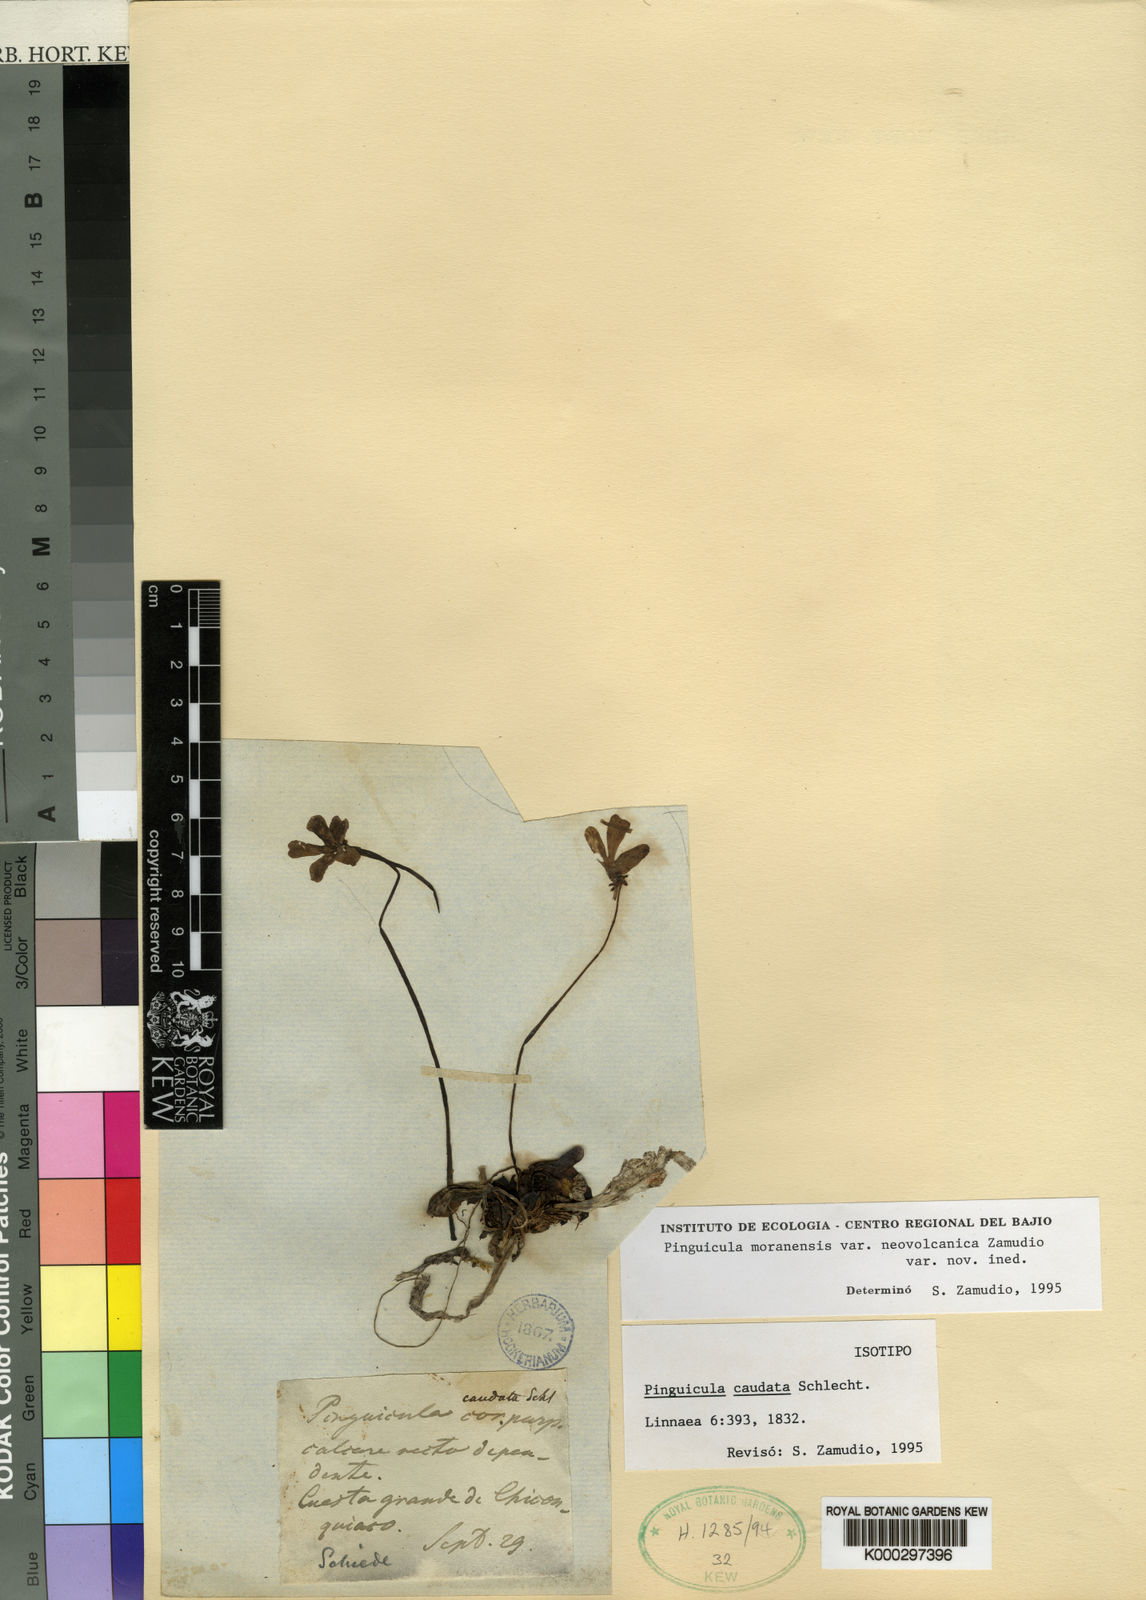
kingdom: Plantae
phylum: Tracheophyta
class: Magnoliopsida
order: Lamiales
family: Lentibulariaceae
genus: Pinguicula
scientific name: Pinguicula caudata
